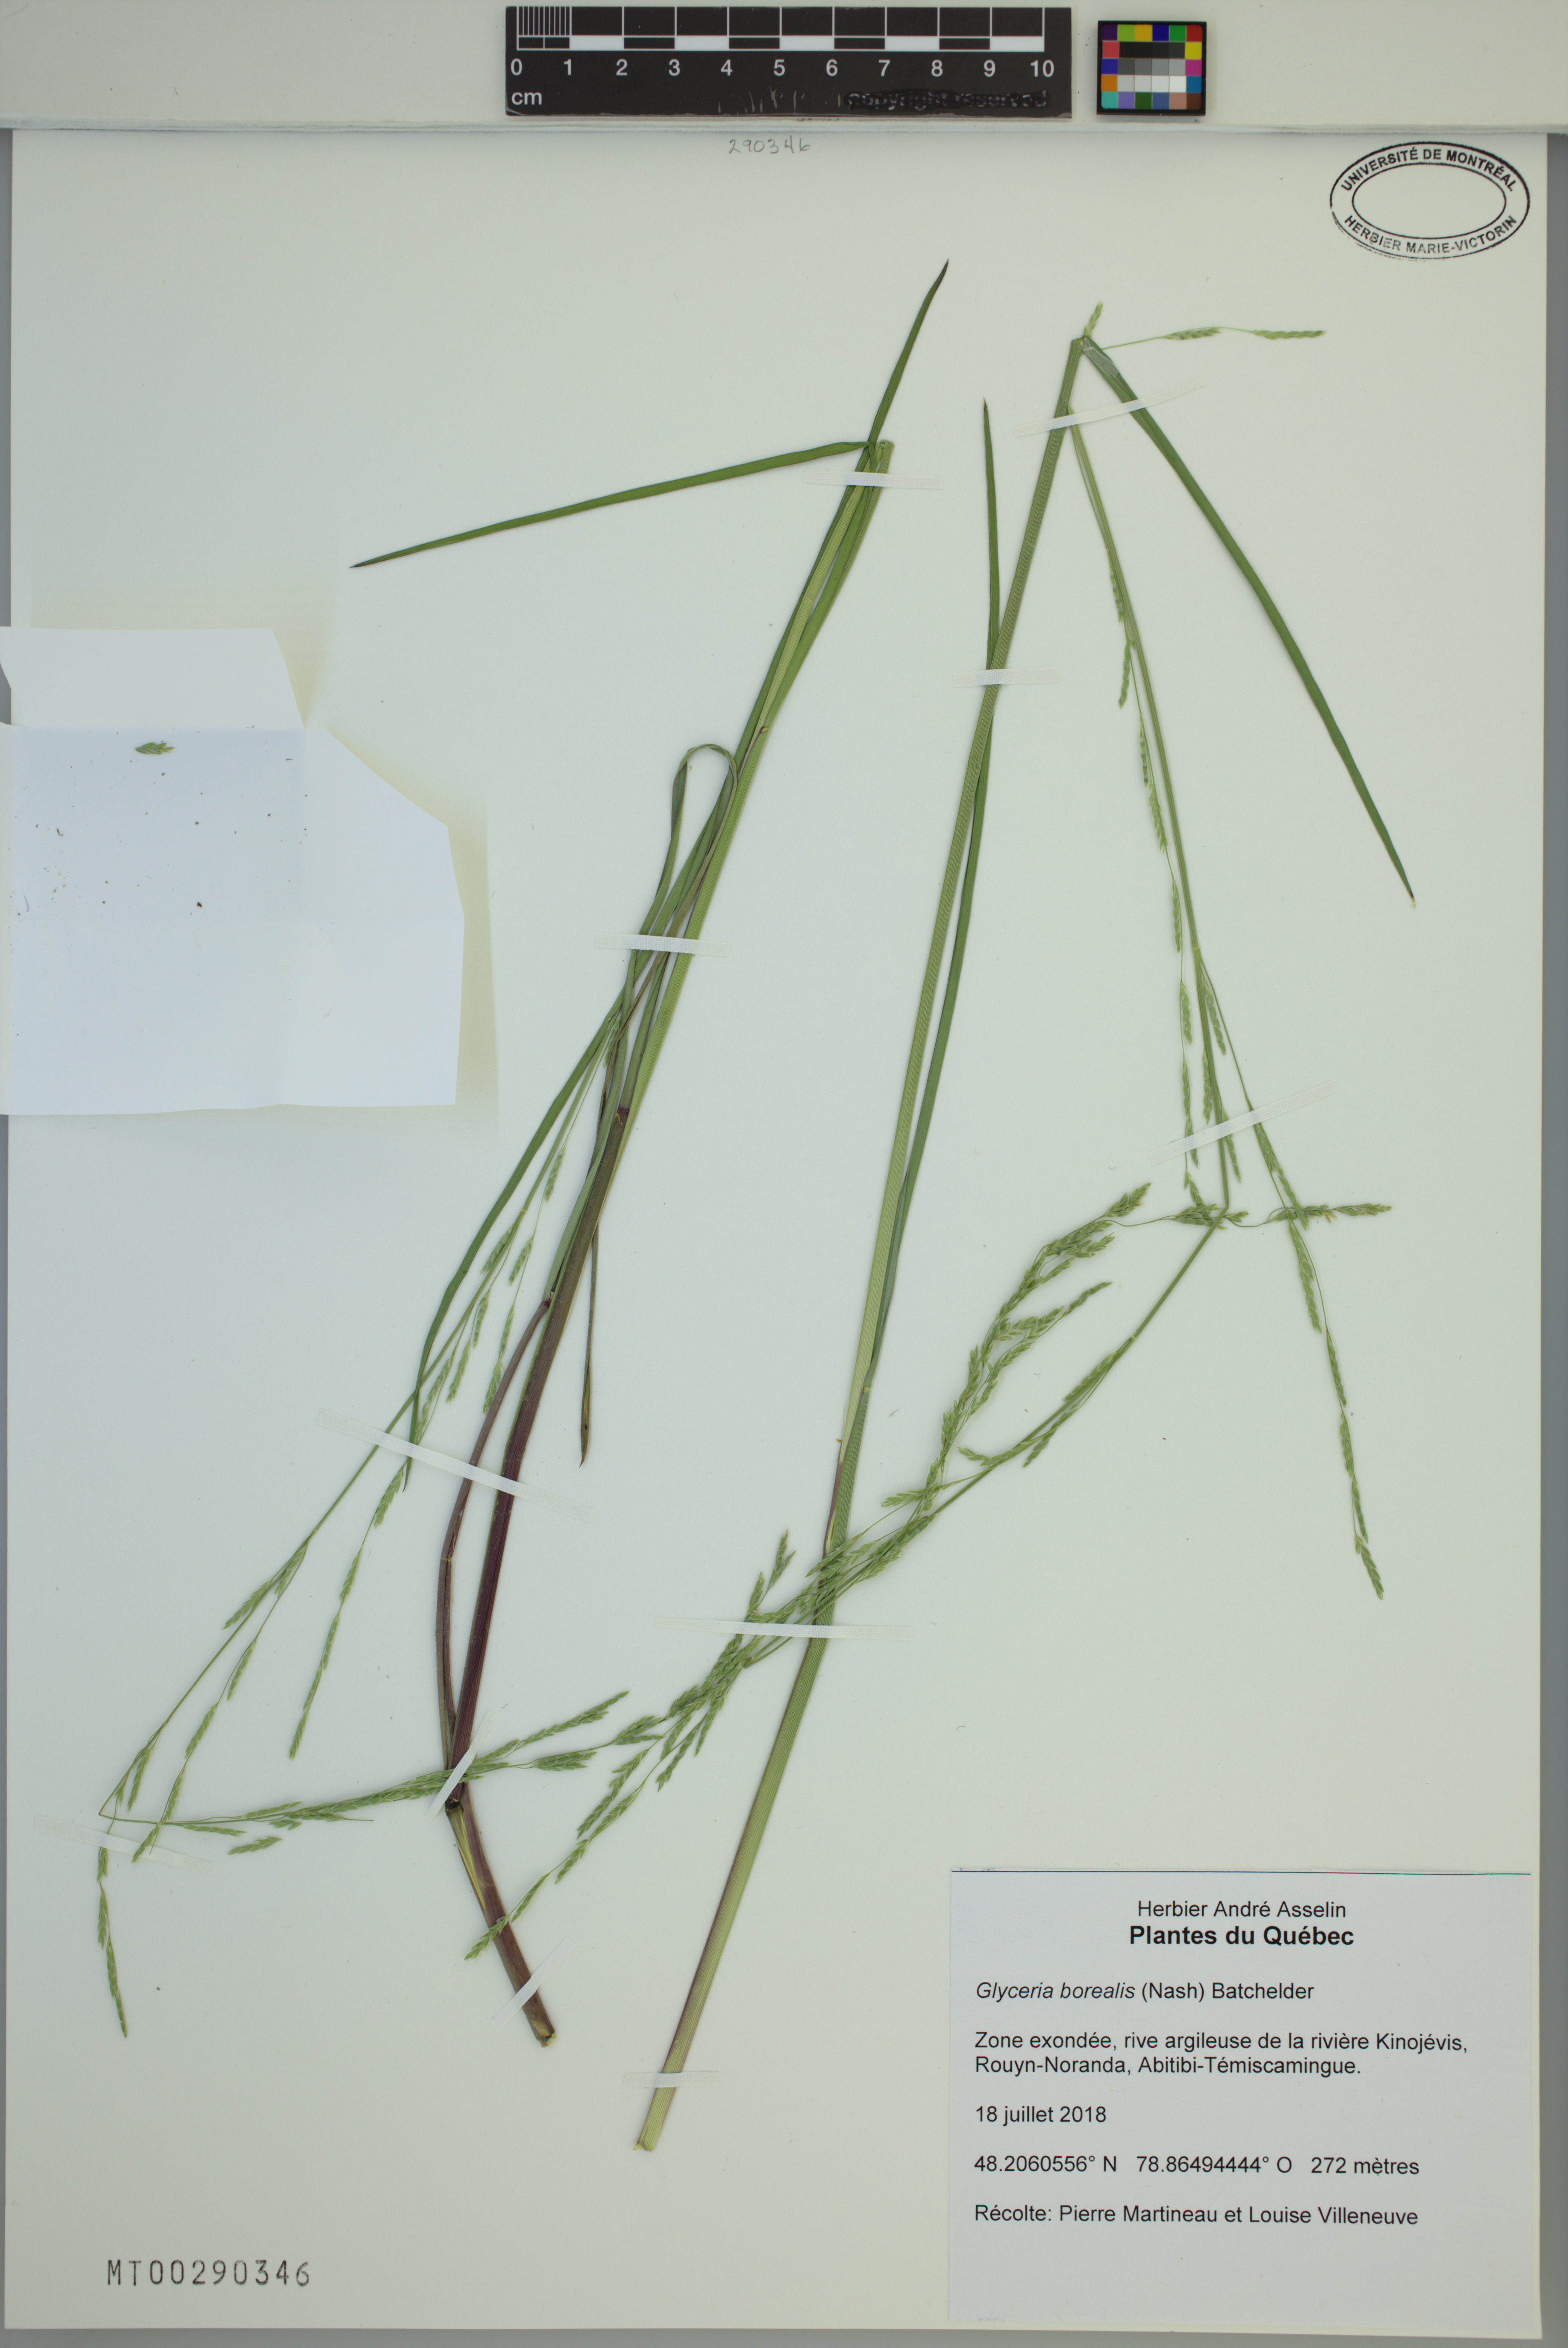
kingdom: Plantae
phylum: Tracheophyta
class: Liliopsida
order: Poales
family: Poaceae
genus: Glyceria
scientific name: Glyceria borealis
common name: Boreal glyceria
